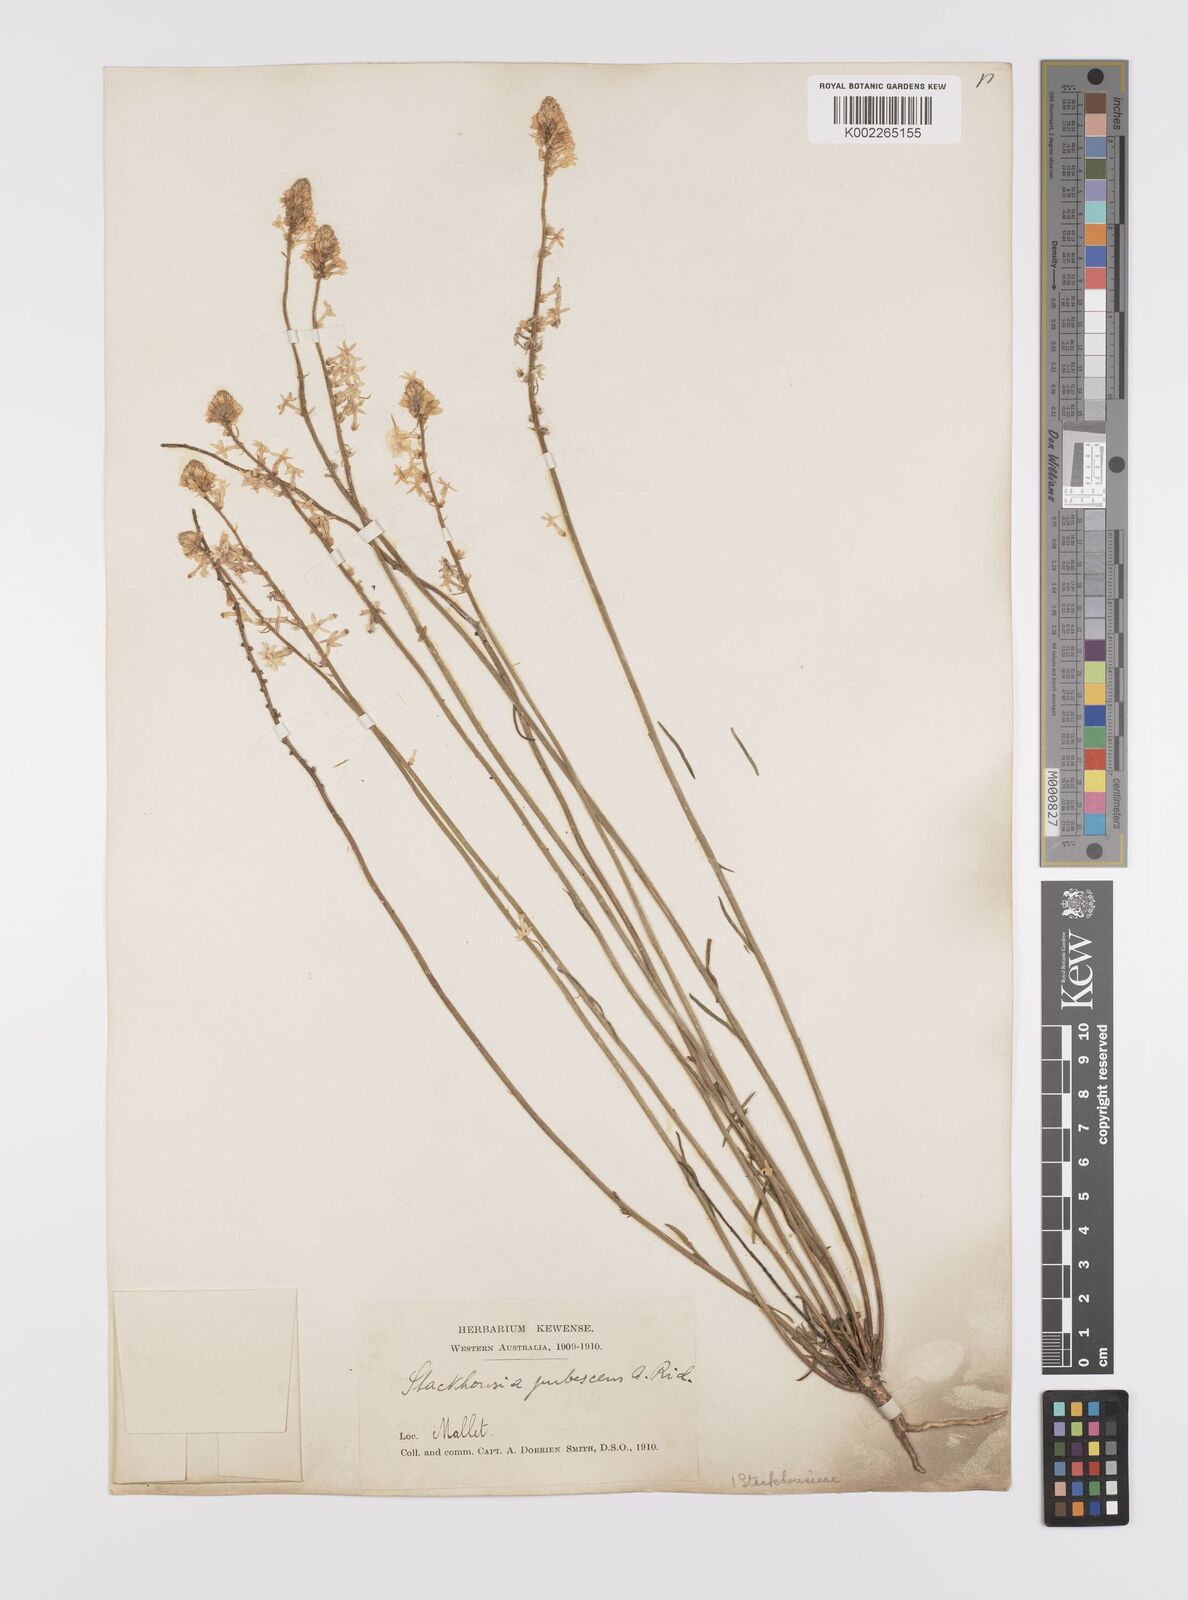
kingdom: Plantae
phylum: Tracheophyta
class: Magnoliopsida
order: Celastrales
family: Celastraceae
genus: Stackhousia
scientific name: Stackhousia monogyna
